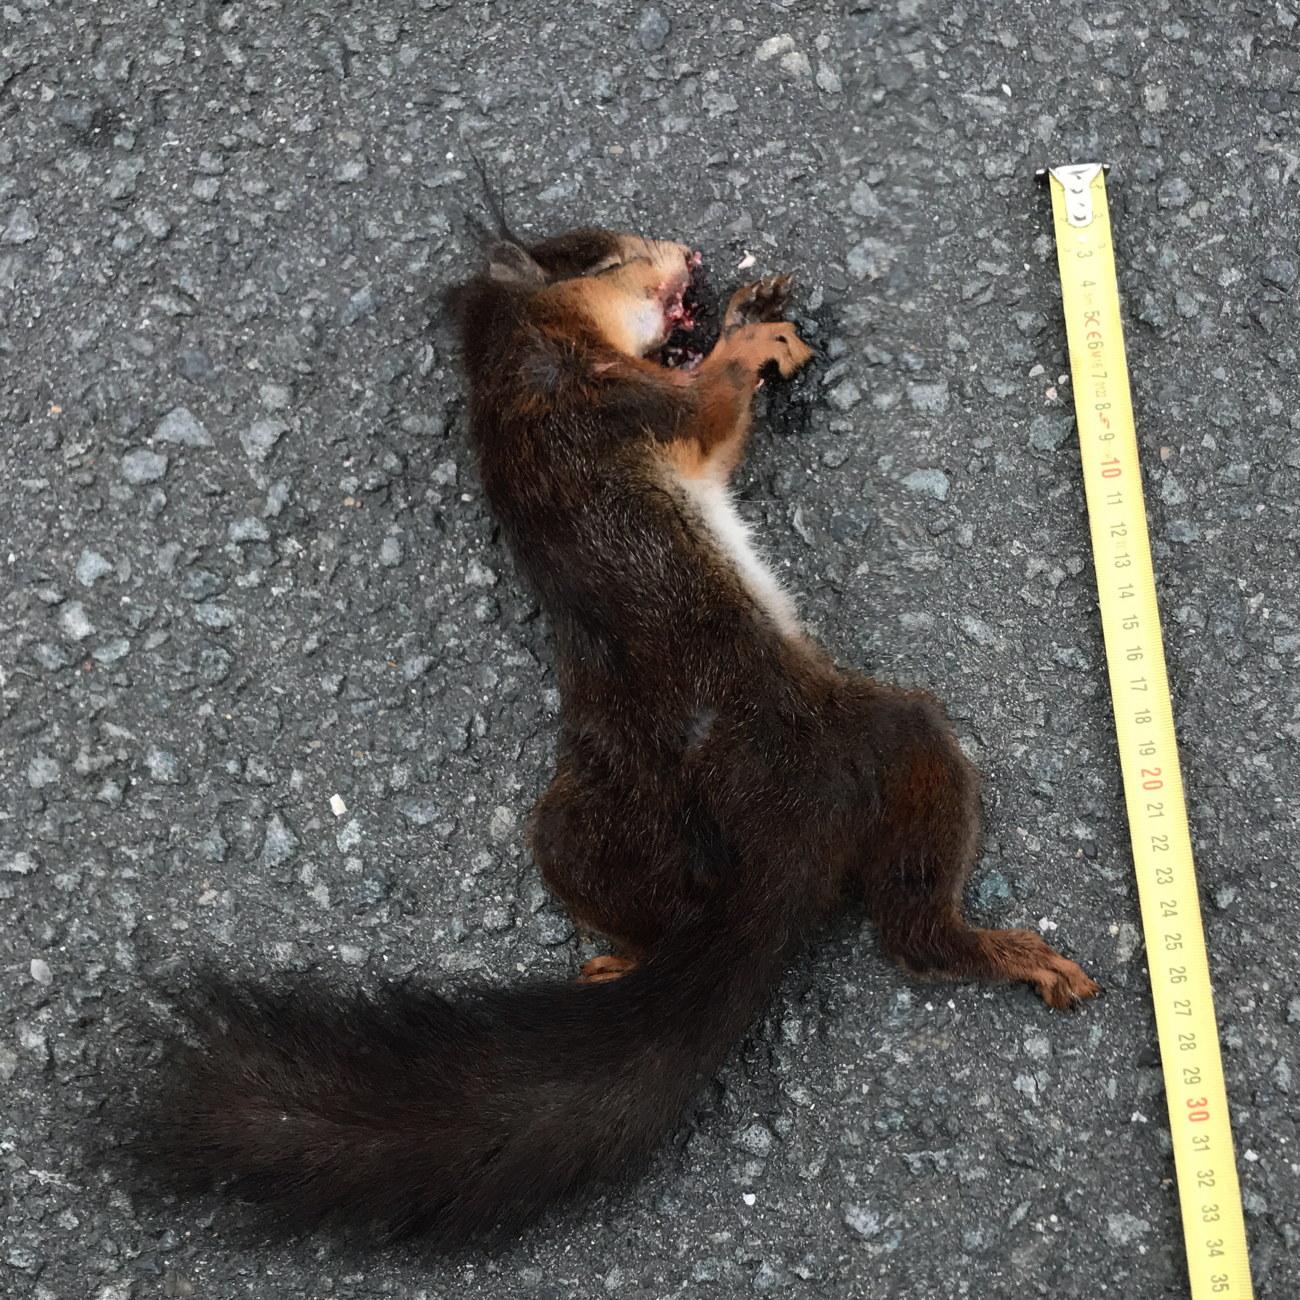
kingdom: Animalia
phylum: Chordata
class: Mammalia
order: Rodentia
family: Sciuridae
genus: Sciurus
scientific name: Sciurus vulgaris
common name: Eurasian red squirrel
